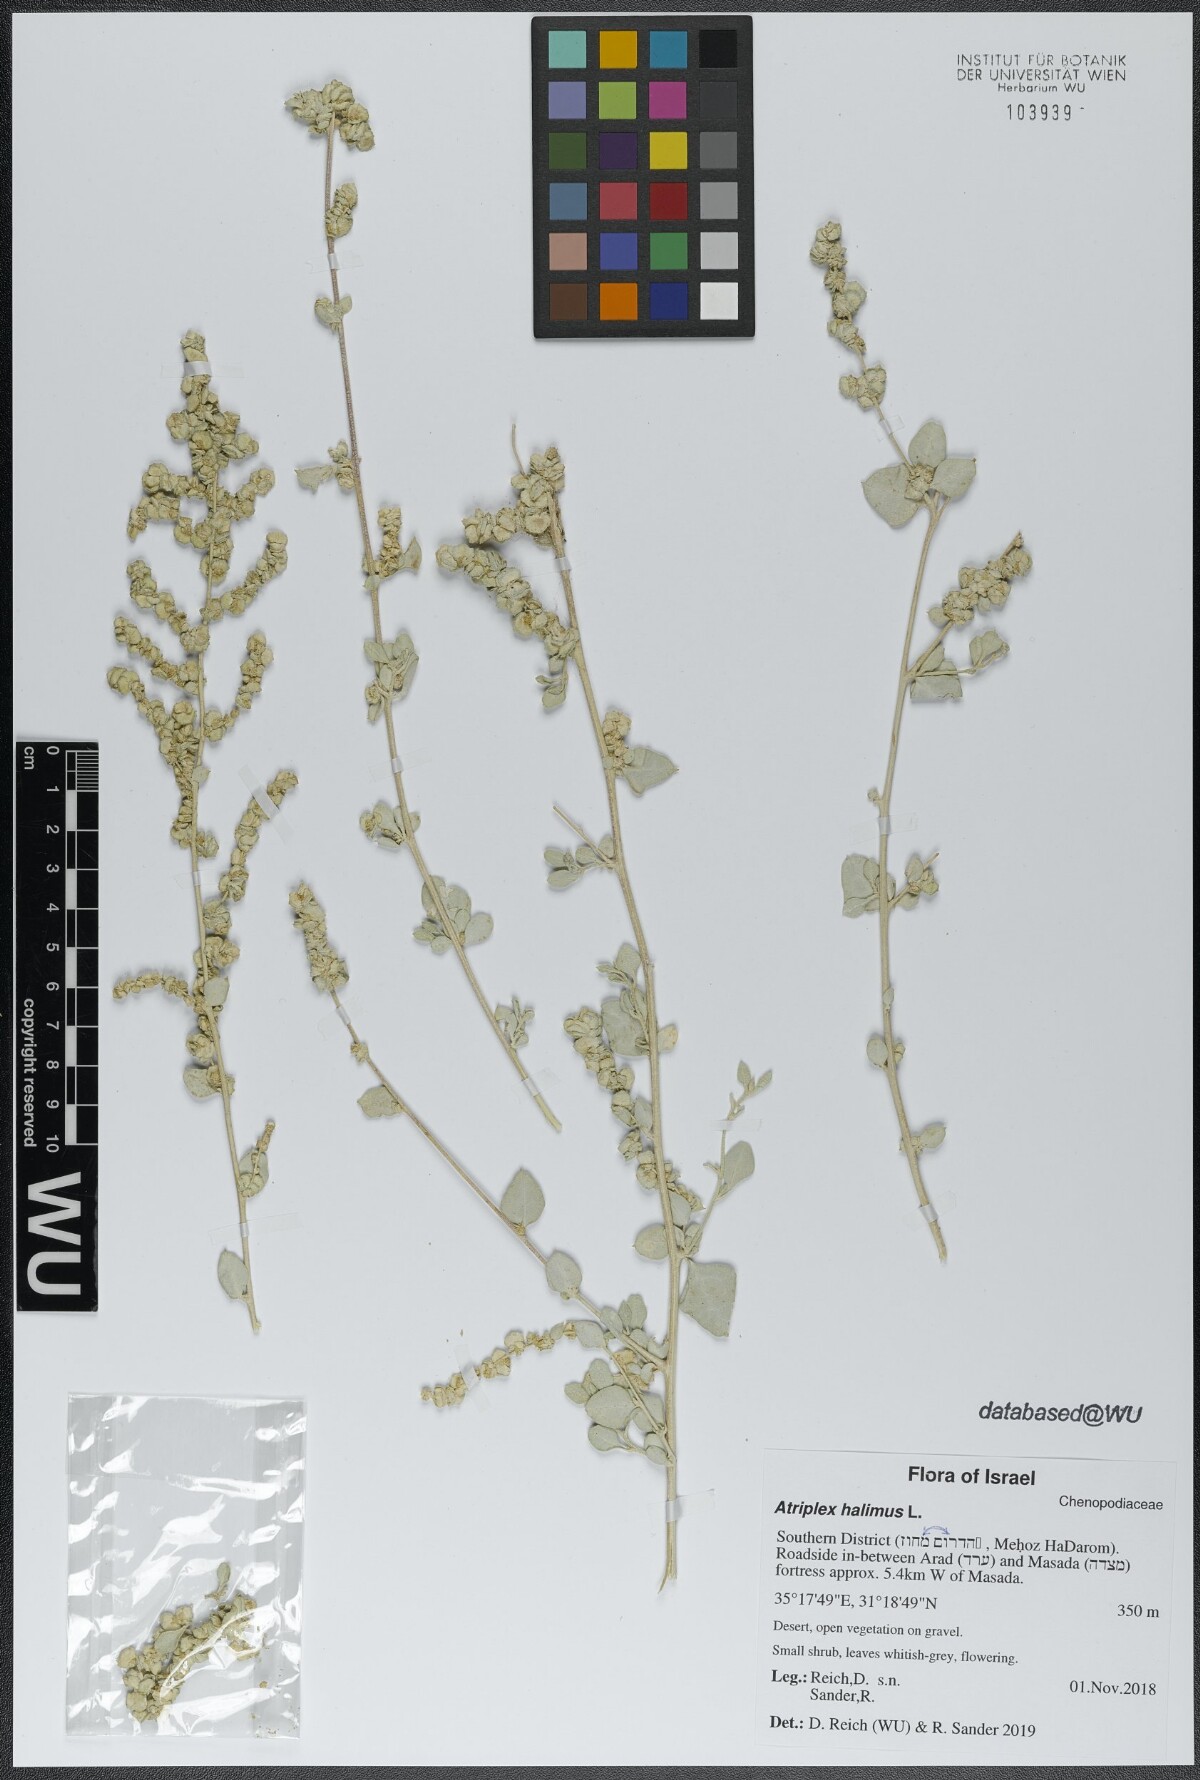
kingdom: Plantae
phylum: Tracheophyta
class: Magnoliopsida
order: Caryophyllales
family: Amaranthaceae
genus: Atriplex
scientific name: Atriplex halimus
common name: Shrubby orache
